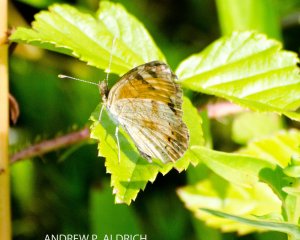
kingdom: Animalia
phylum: Arthropoda
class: Insecta
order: Lepidoptera
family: Nymphalidae
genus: Phyciodes
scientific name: Phyciodes
